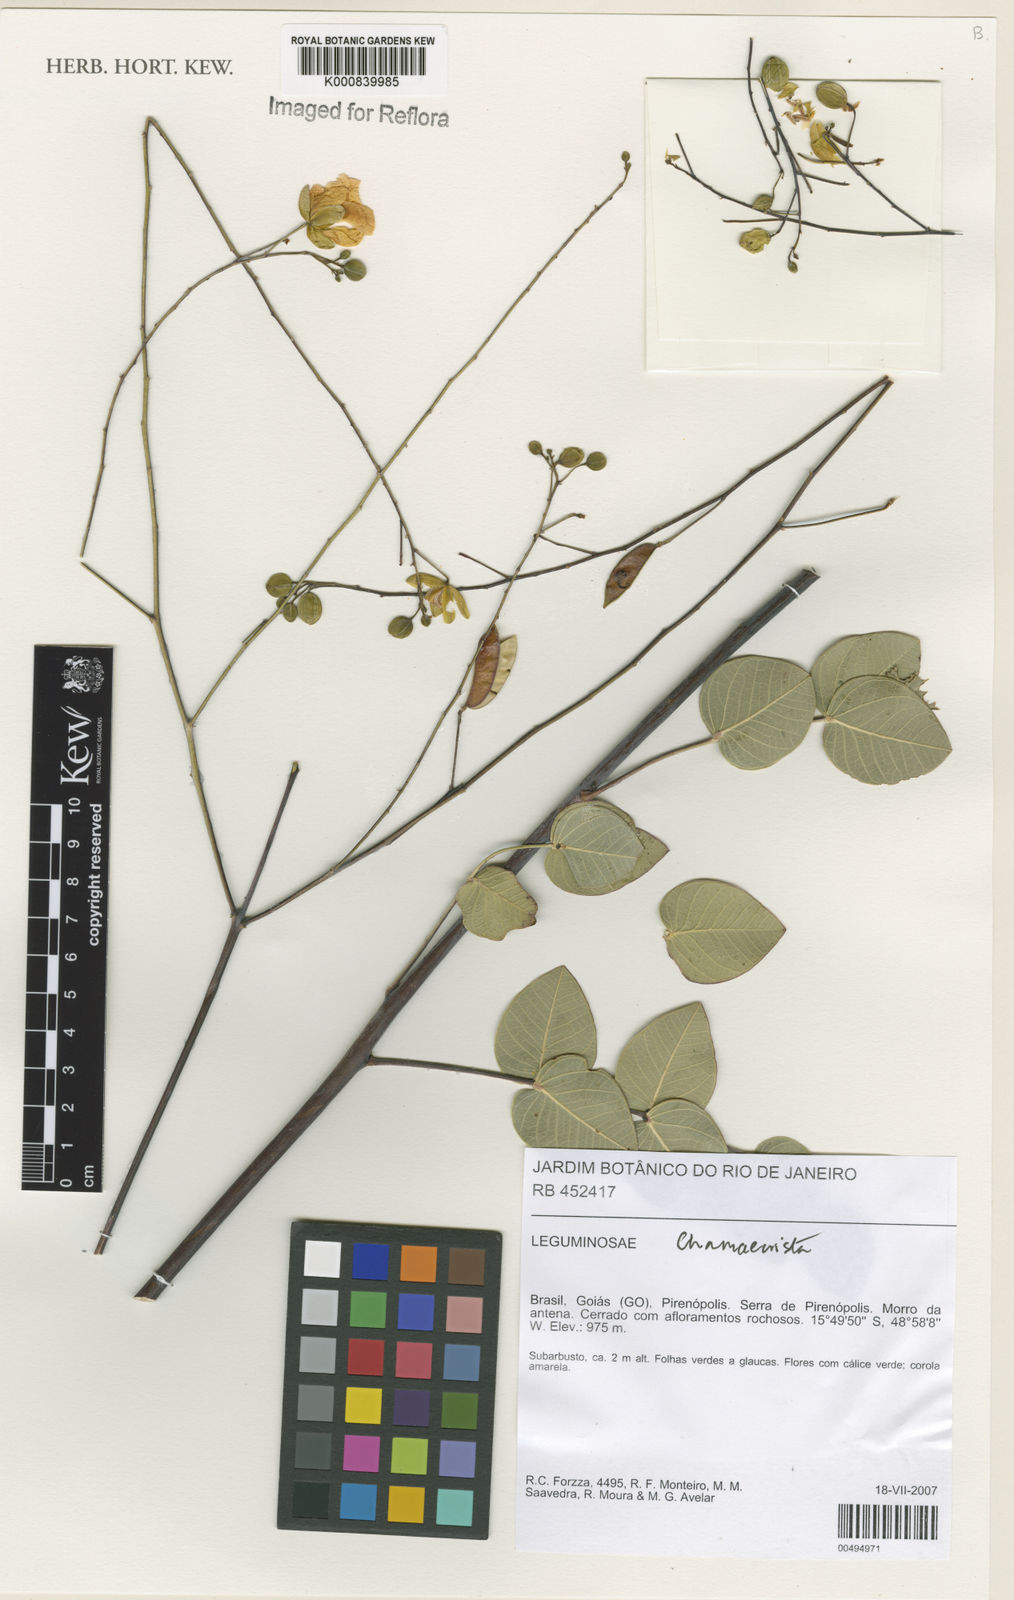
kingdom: Plantae
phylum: Tracheophyta
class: Magnoliopsida
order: Fabales
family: Fabaceae
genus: Chamaecrista
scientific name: Chamaecrista claussenii
